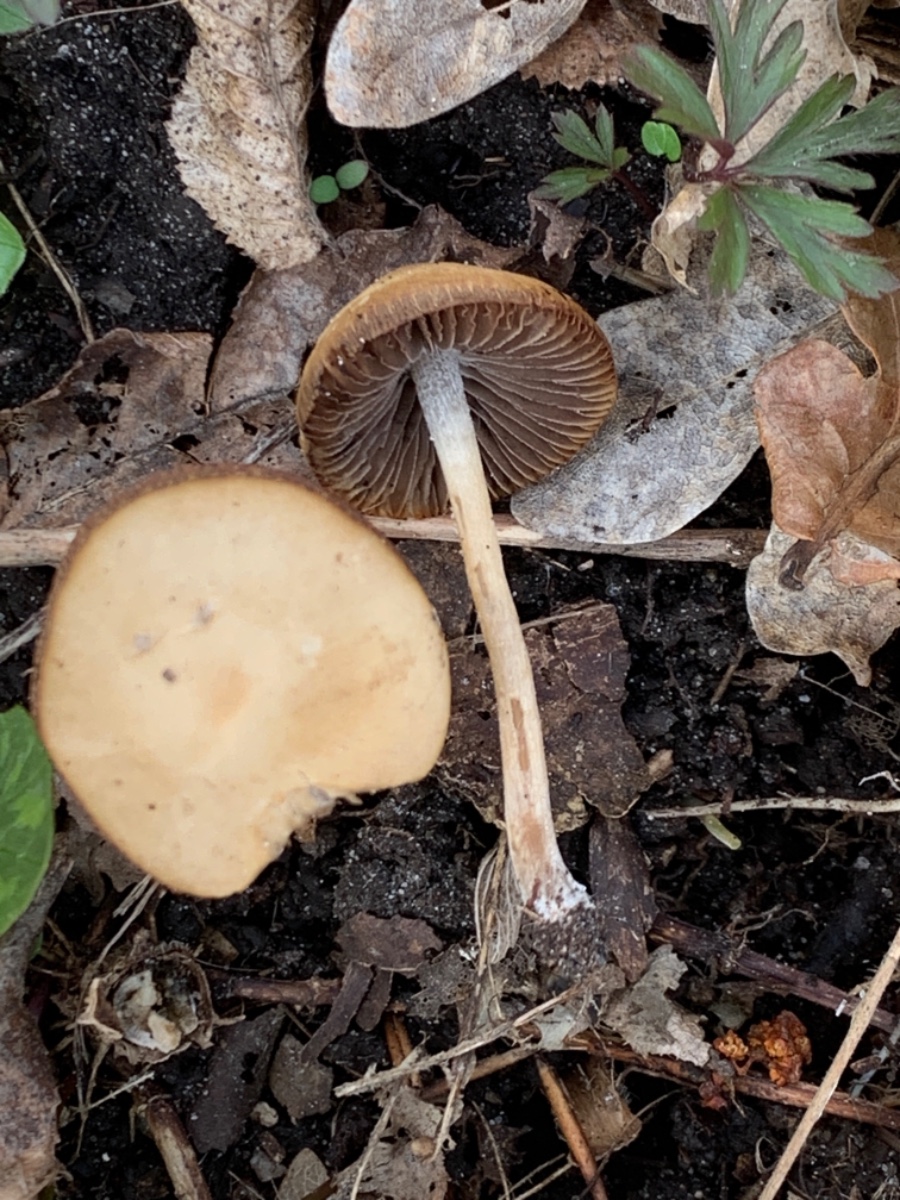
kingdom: Fungi
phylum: Basidiomycota
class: Agaricomycetes
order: Agaricales
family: Psathyrellaceae
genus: Psathyrella
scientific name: Psathyrella
